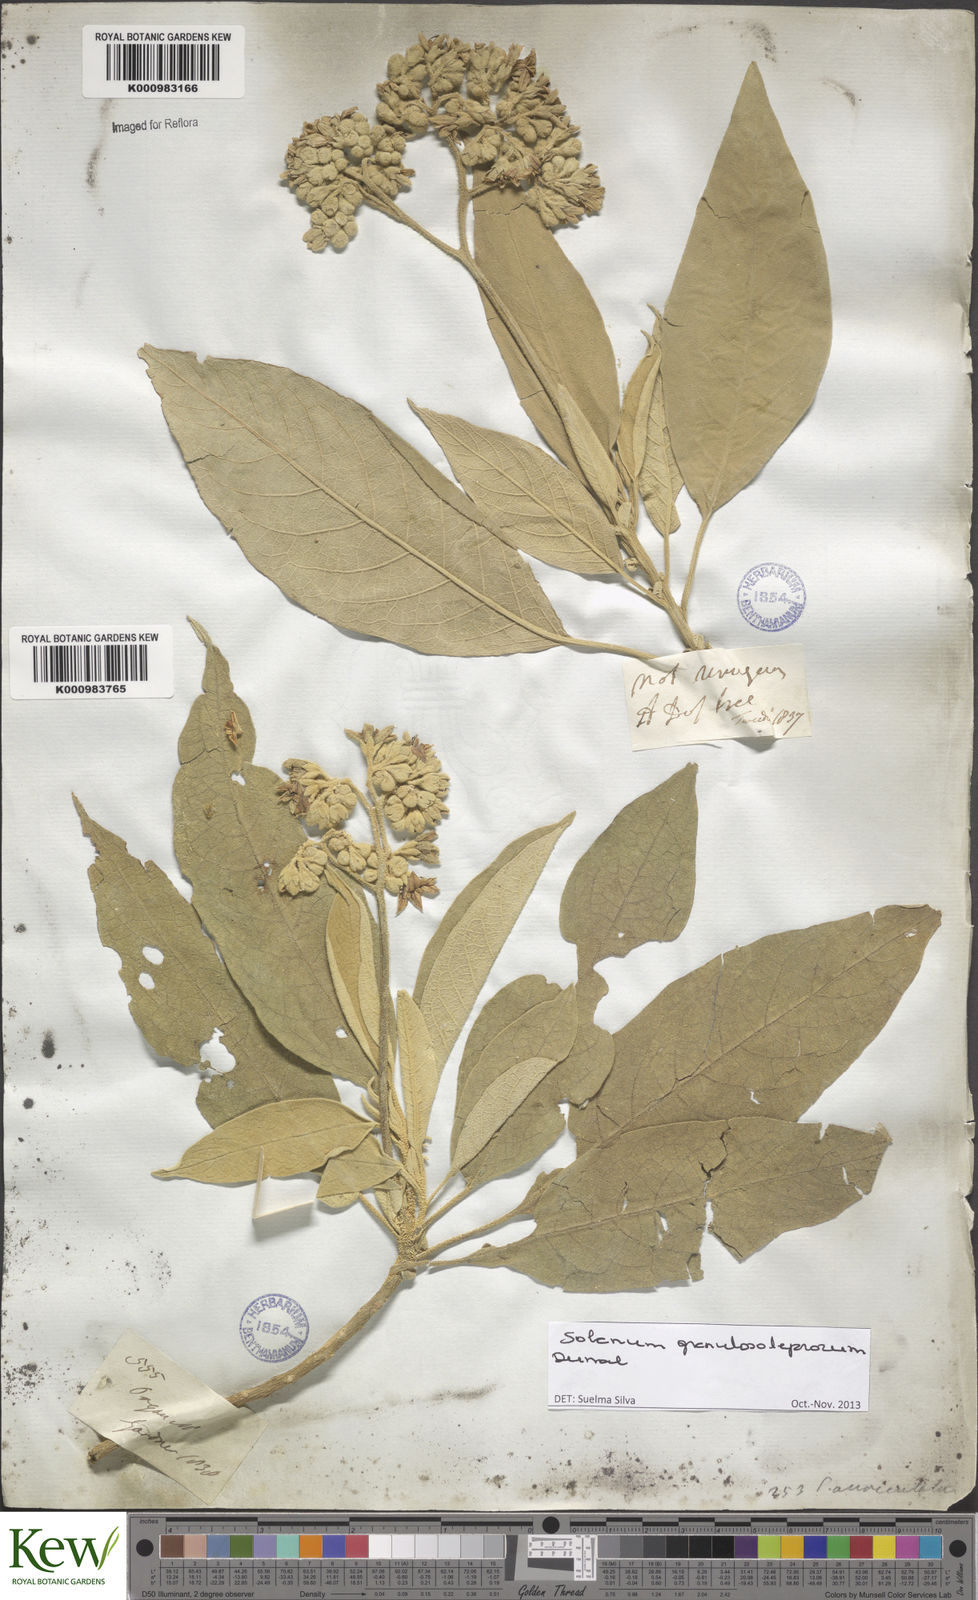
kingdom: Plantae
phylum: Tracheophyta
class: Magnoliopsida
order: Solanales
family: Solanaceae
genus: Solanum
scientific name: Solanum granulosoleprosum
